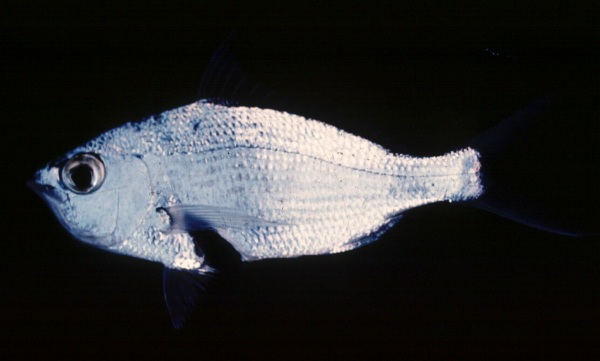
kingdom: Animalia
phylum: Chordata
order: Perciformes
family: Gerreidae
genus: Gerres
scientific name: Gerres
